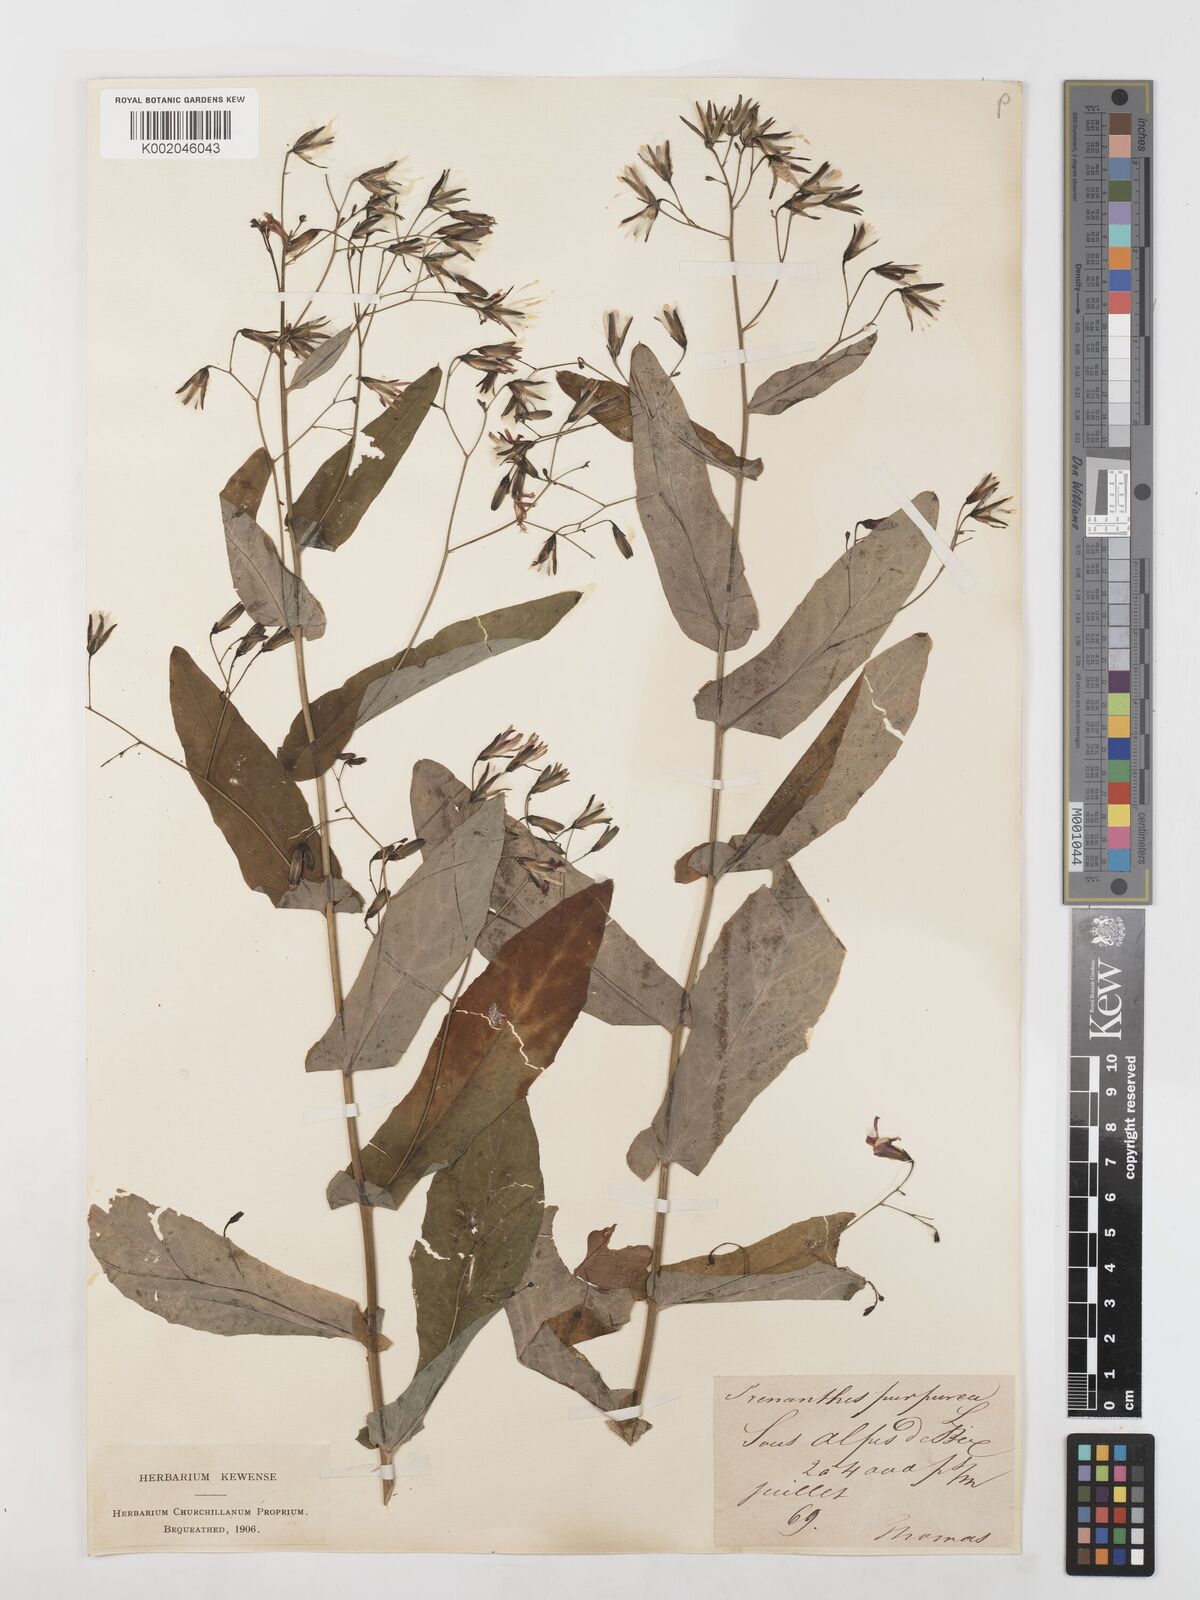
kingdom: Plantae
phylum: Tracheophyta
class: Magnoliopsida
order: Asterales
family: Asteraceae
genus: Prenanthes
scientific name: Prenanthes purpurea
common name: Purple lettuce
